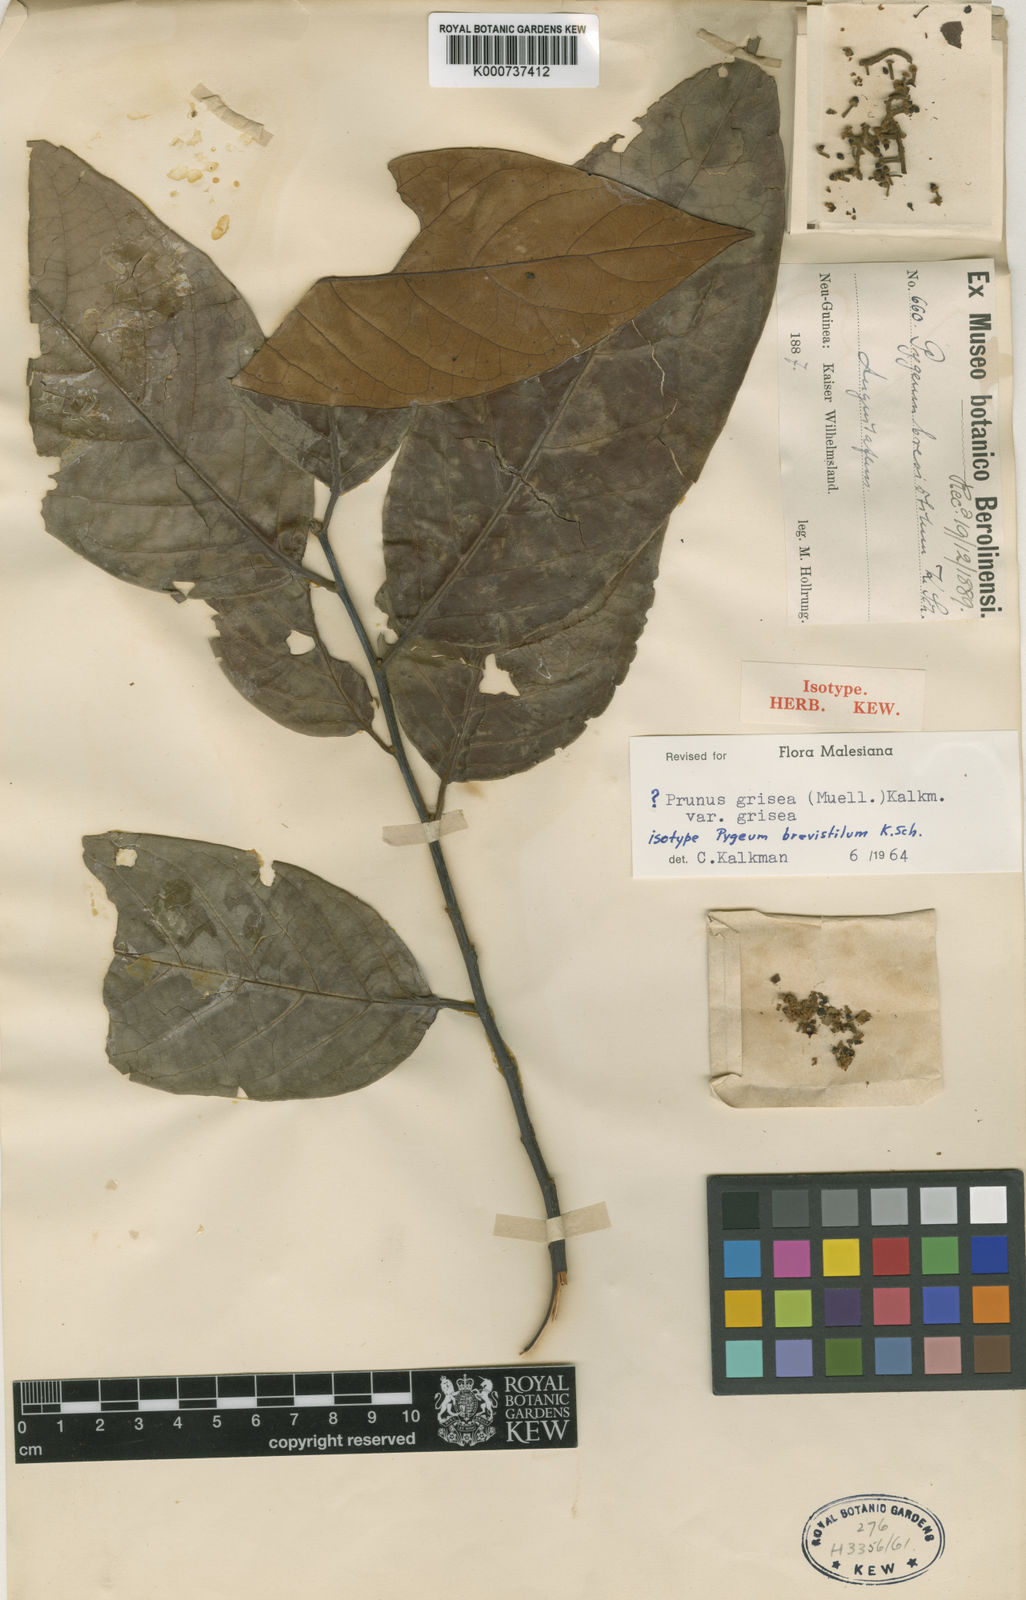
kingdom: Plantae
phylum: Tracheophyta
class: Magnoliopsida
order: Rosales
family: Rosaceae
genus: Prunus
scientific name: Prunus
